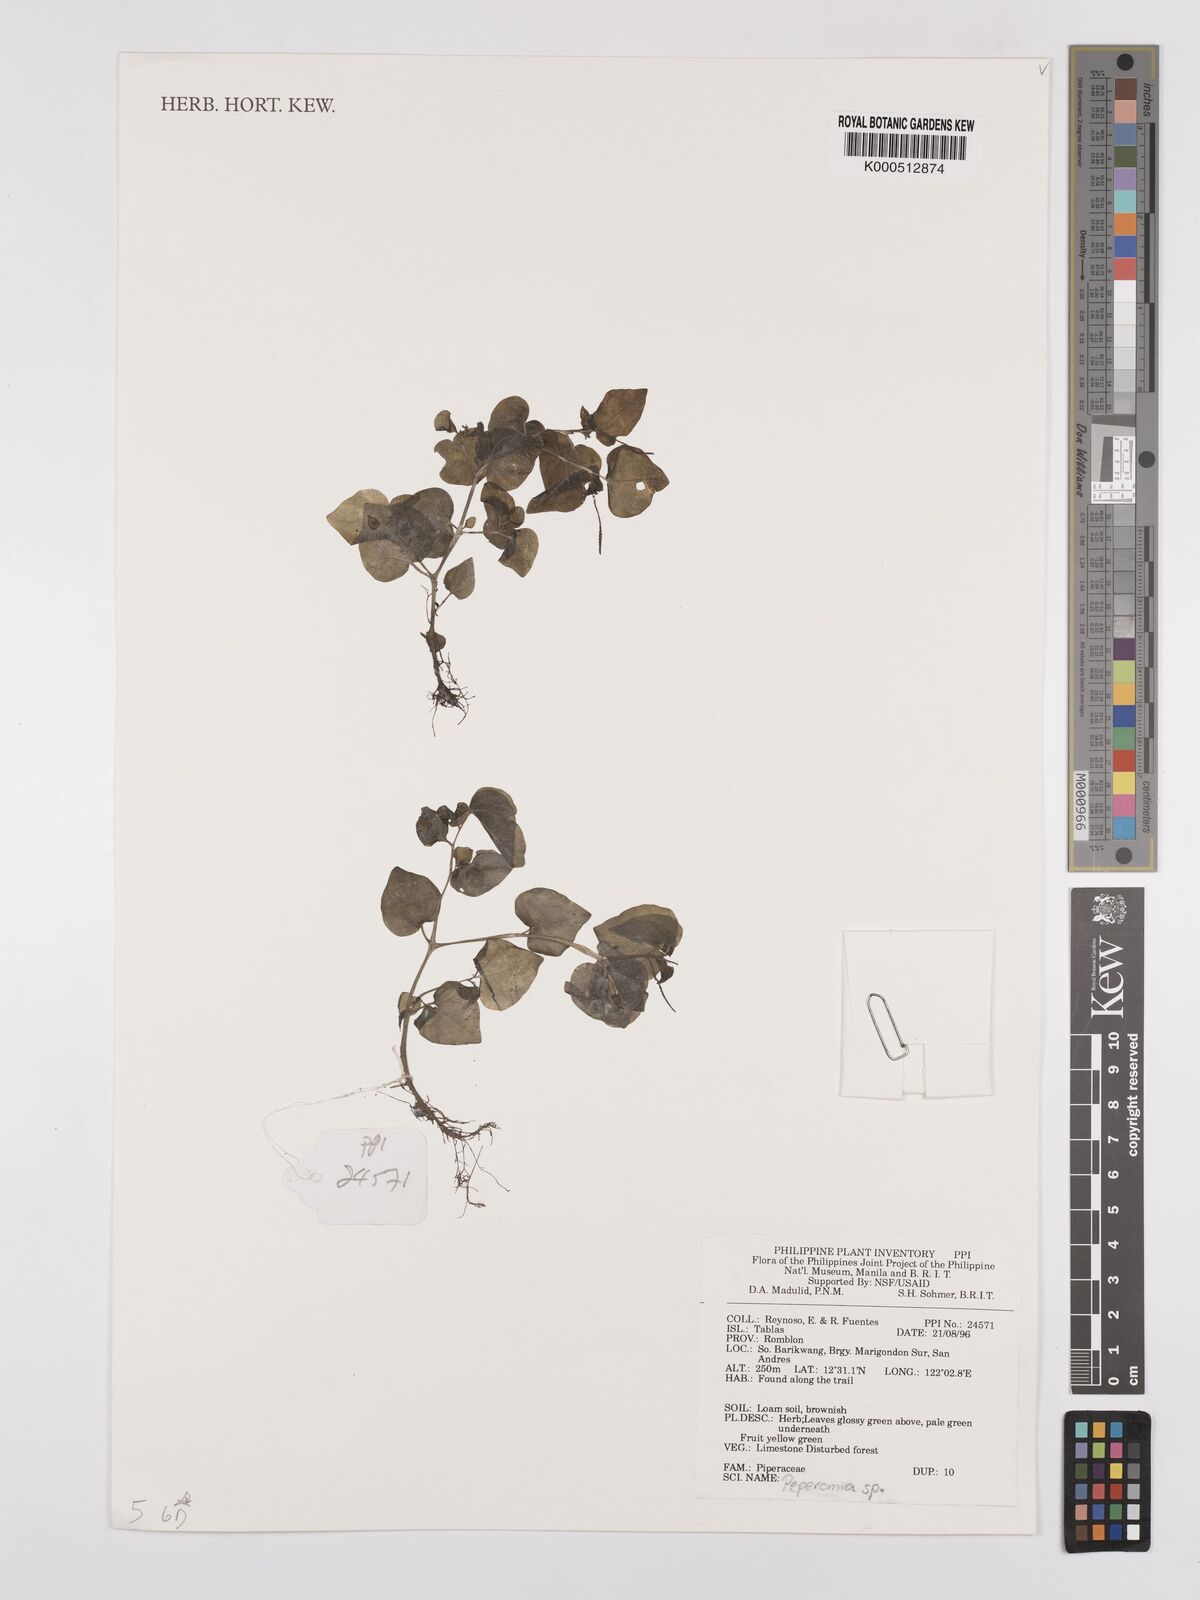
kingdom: Plantae
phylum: Tracheophyta
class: Magnoliopsida
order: Piperales
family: Piperaceae
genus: Peperomia
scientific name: Peperomia
